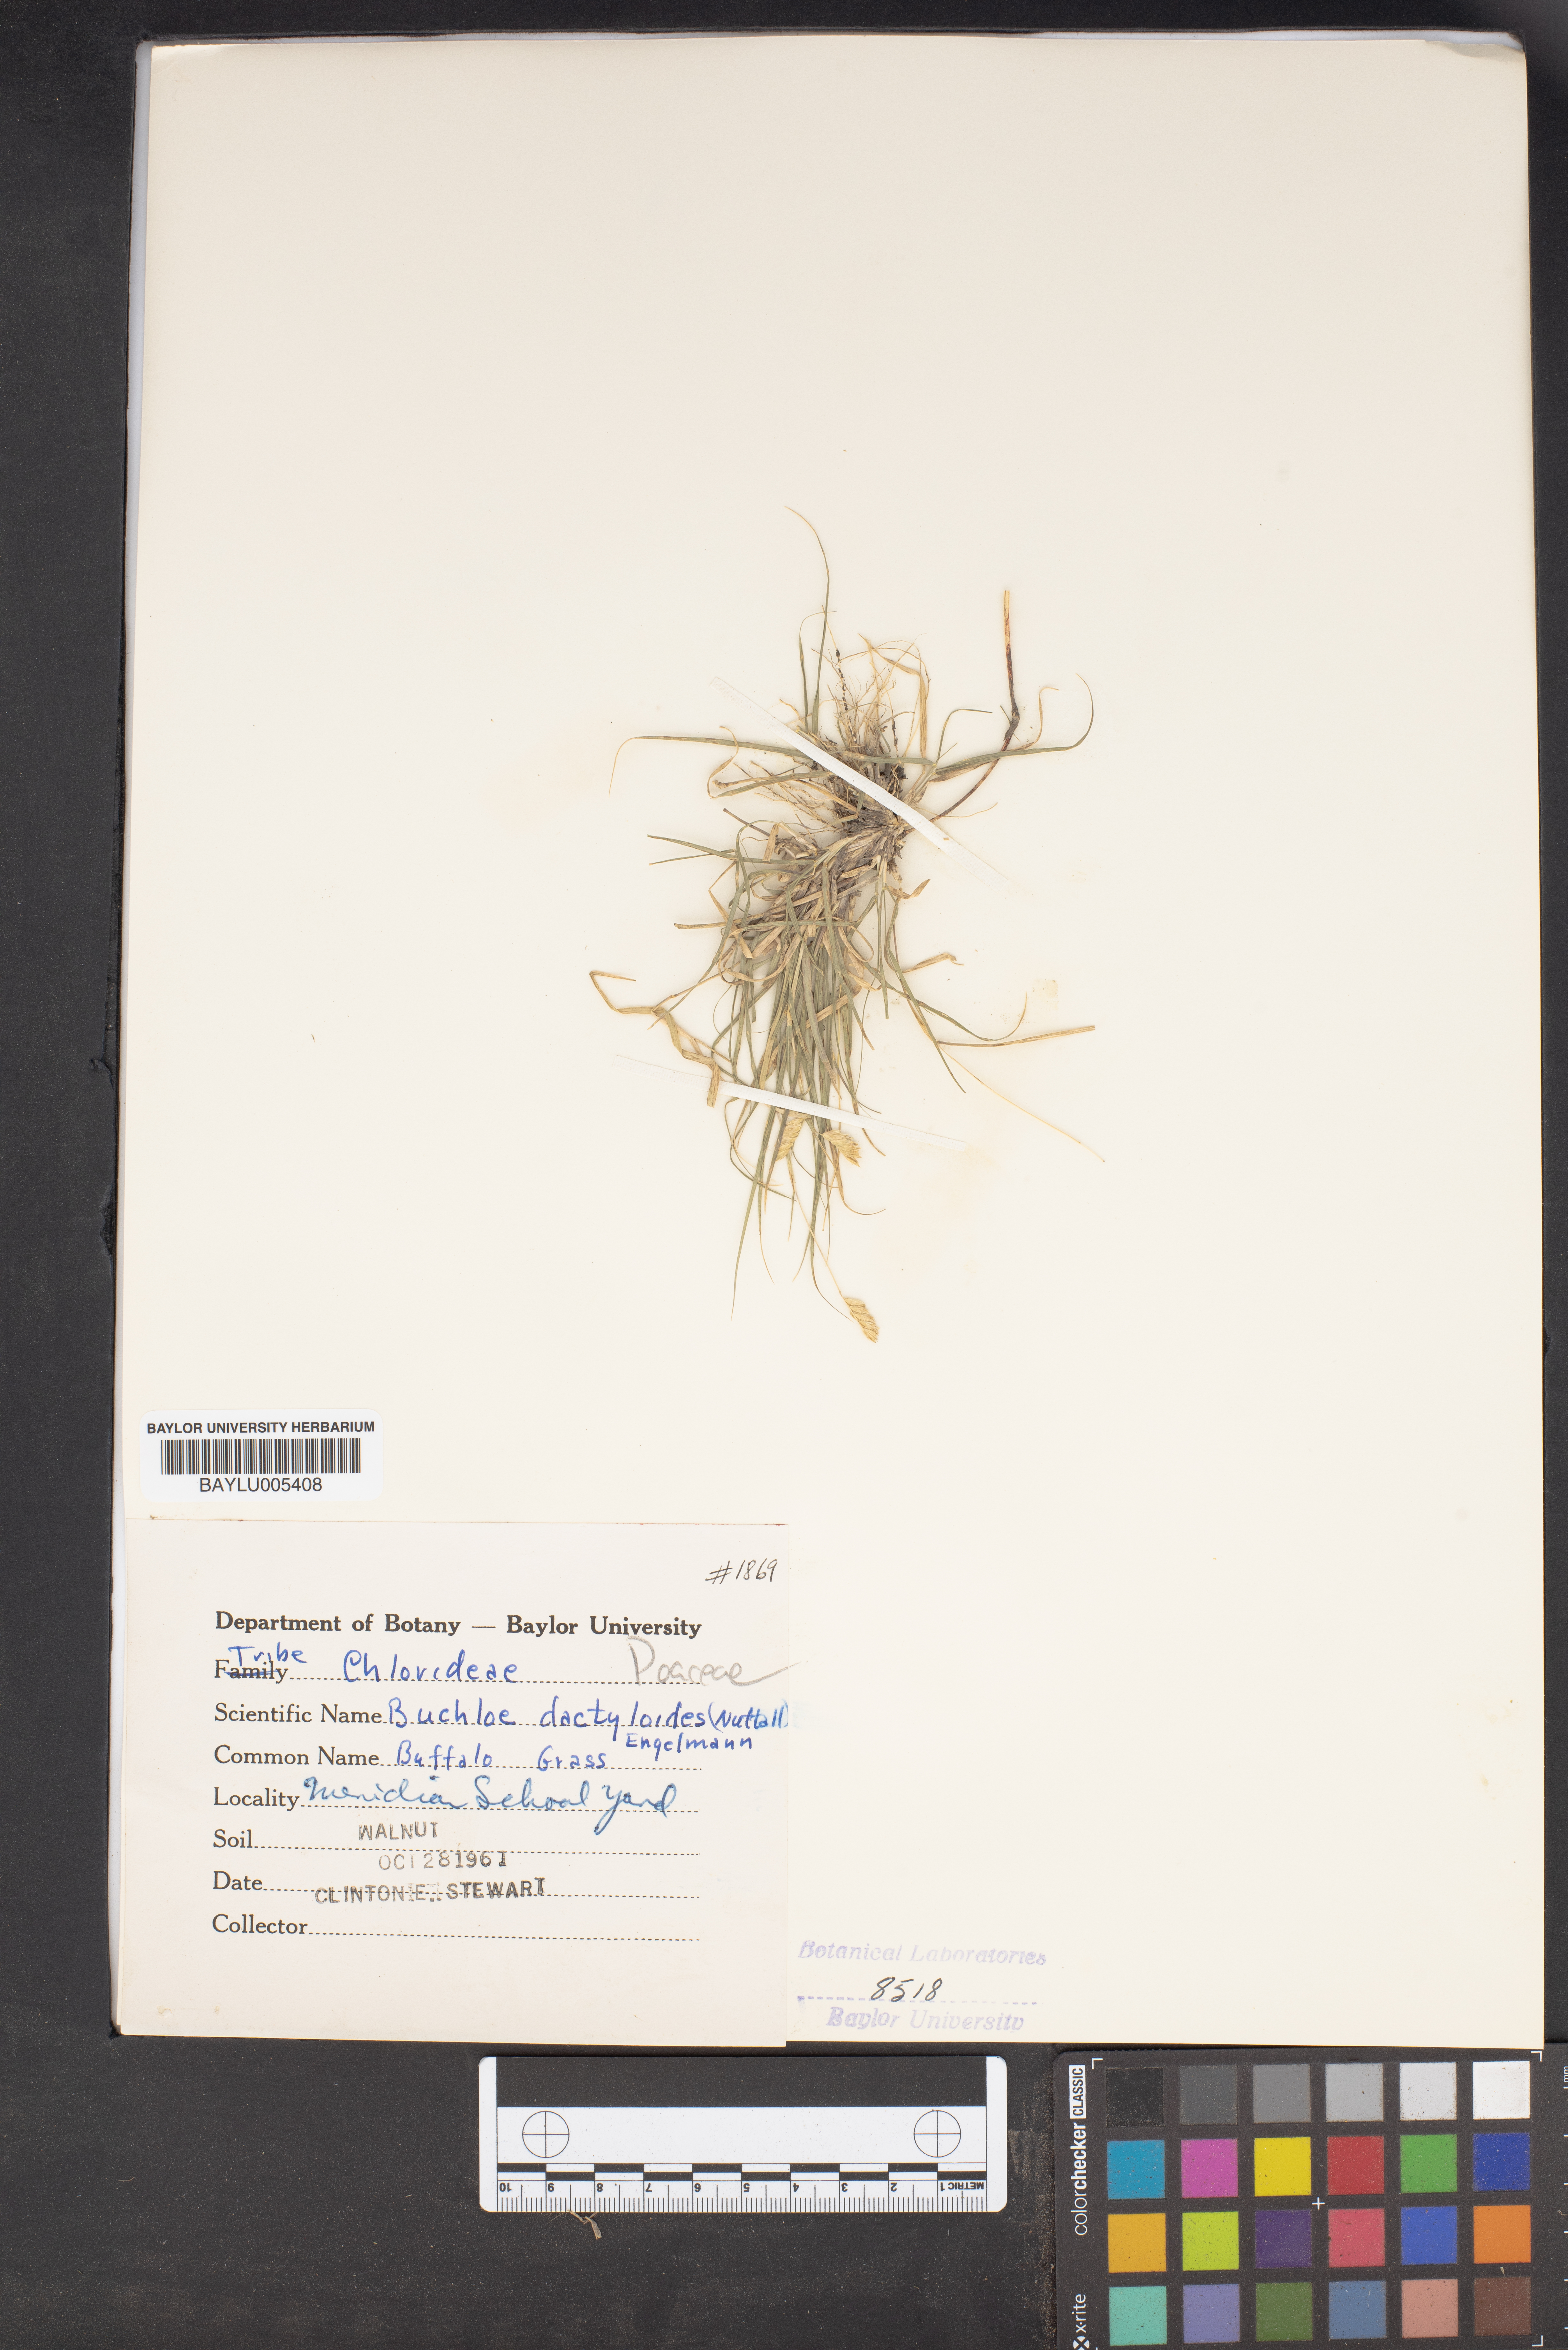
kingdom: Plantae
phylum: Tracheophyta
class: Liliopsida
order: Poales
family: Poaceae
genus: Bouteloua
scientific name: Bouteloua dactyloides
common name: Buffalo grass
